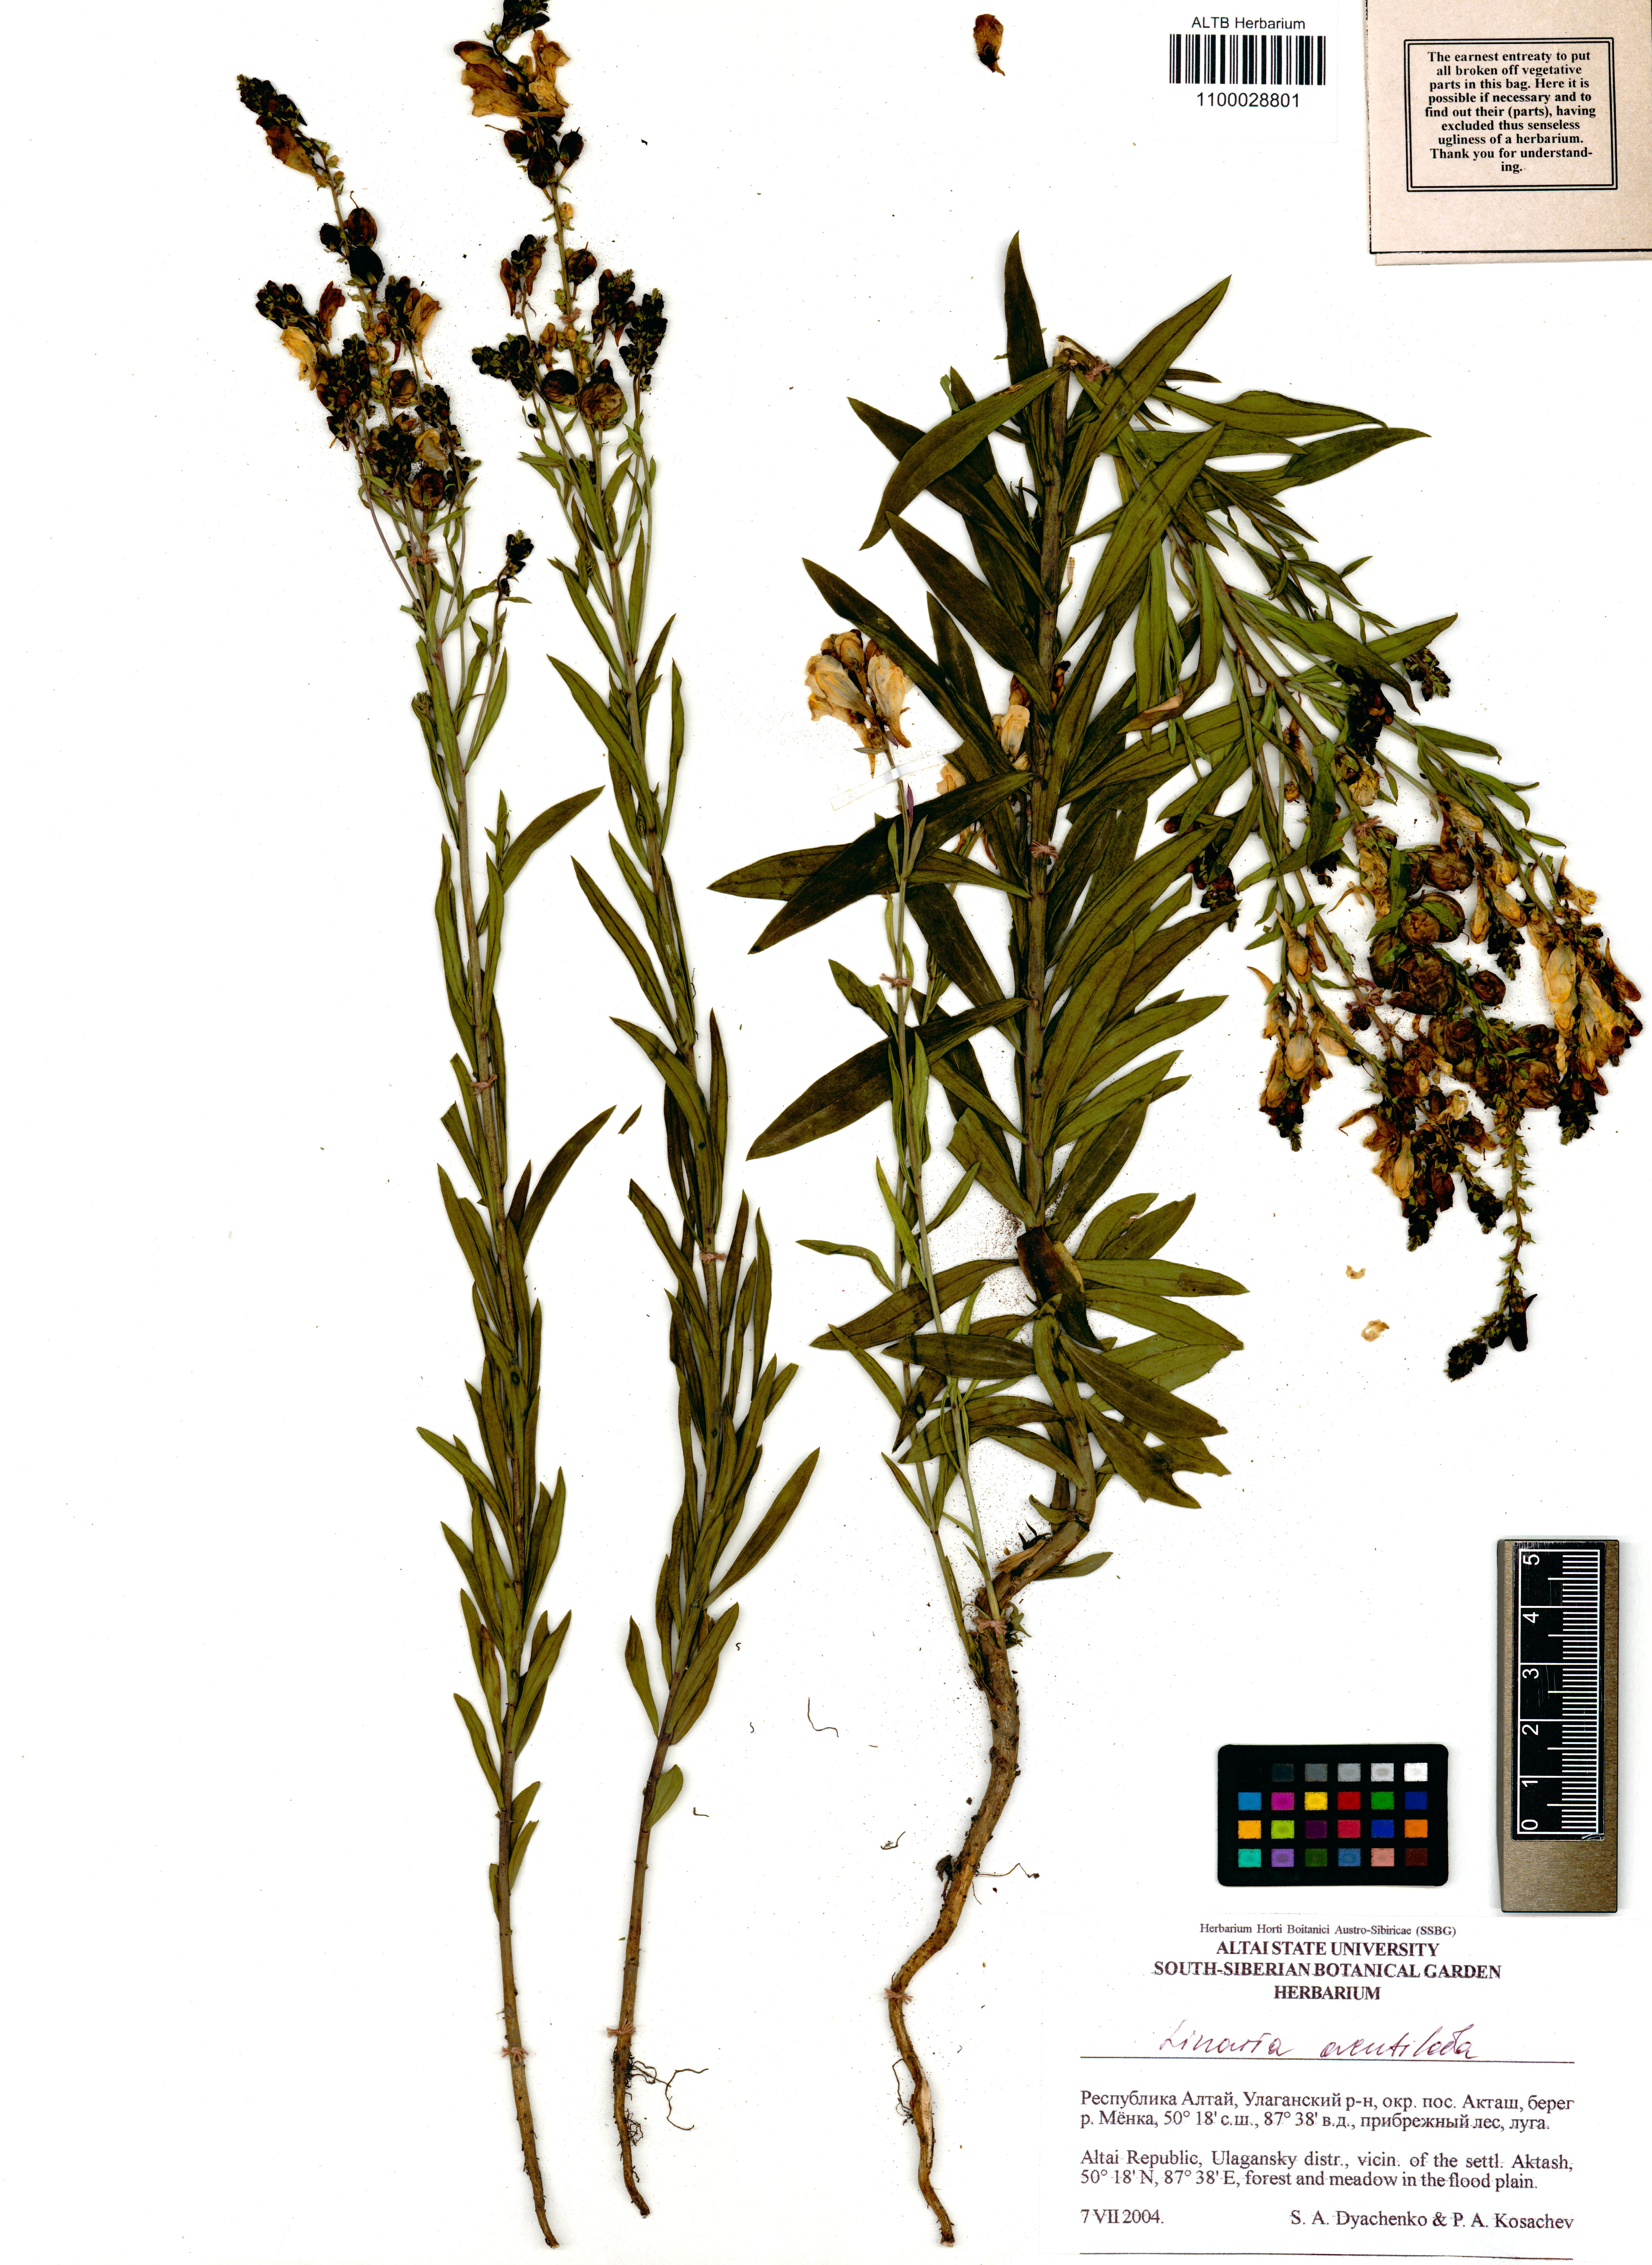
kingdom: Plantae
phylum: Tracheophyta
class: Magnoliopsida
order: Lamiales
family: Plantaginaceae
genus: Linaria
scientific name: Linaria acutiloba
